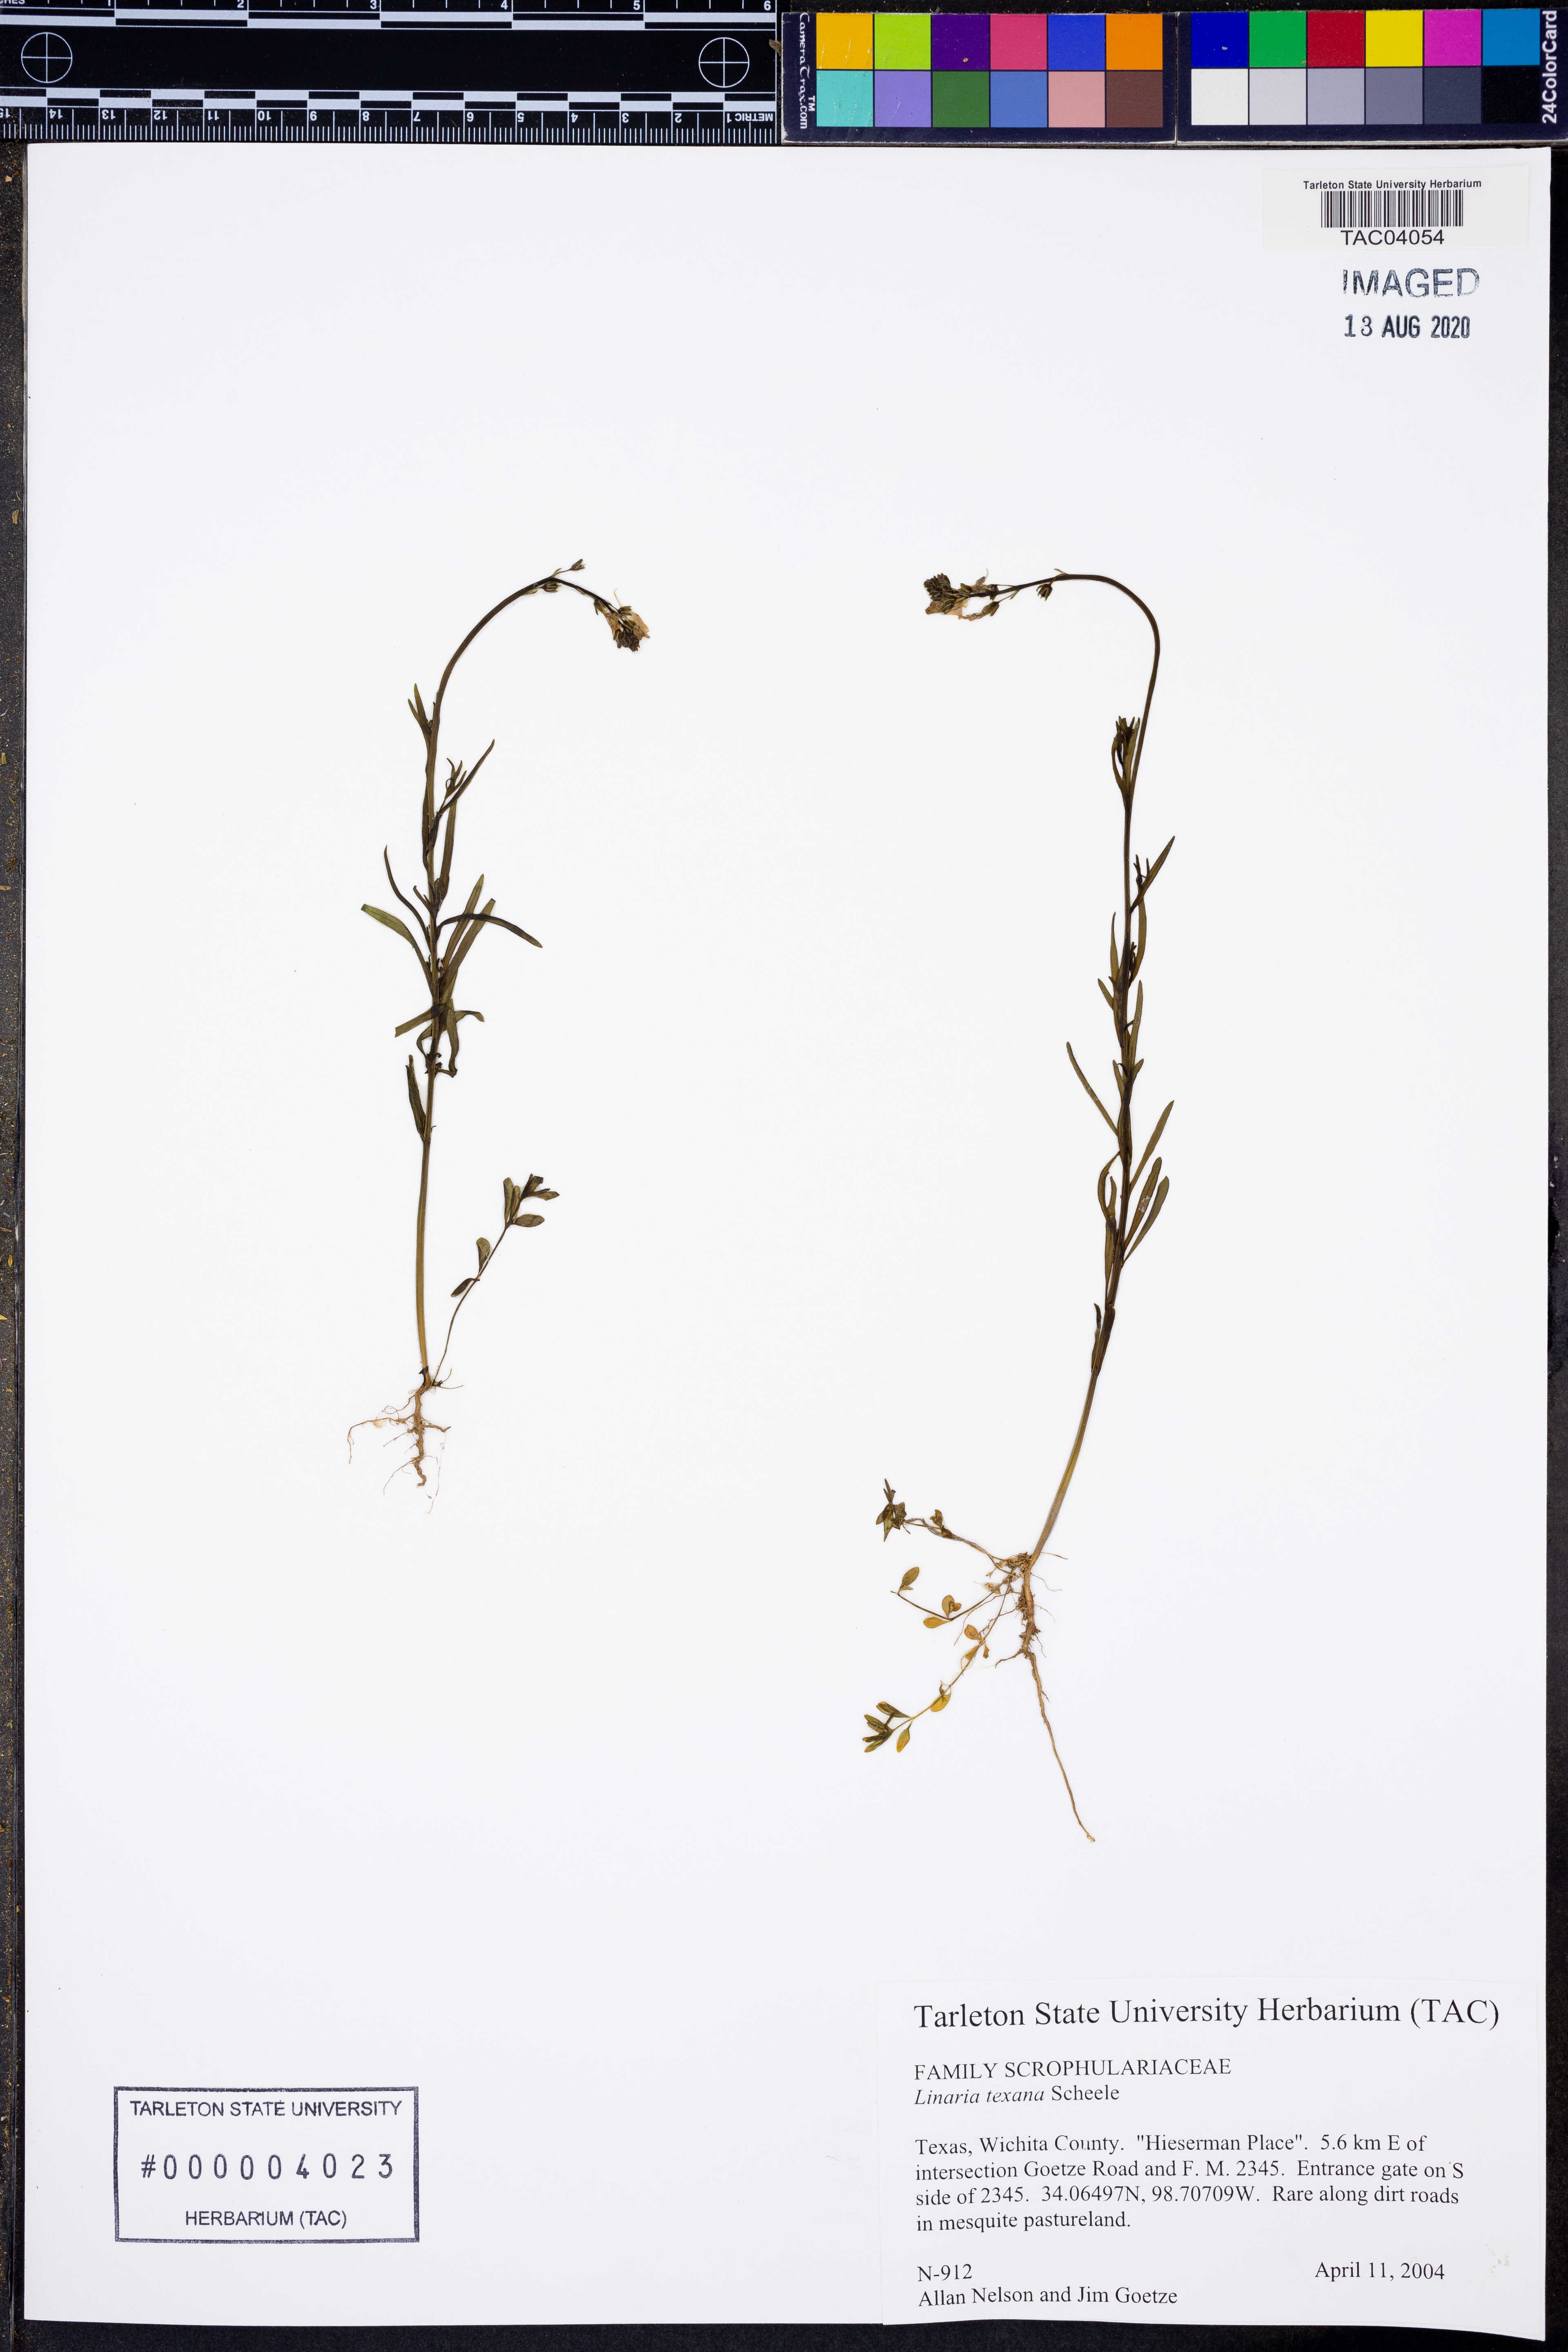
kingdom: Plantae
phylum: Tracheophyta
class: Magnoliopsida
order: Lamiales
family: Plantaginaceae
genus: Nuttallanthus
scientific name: Nuttallanthus texanus
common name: Texas toadflax
